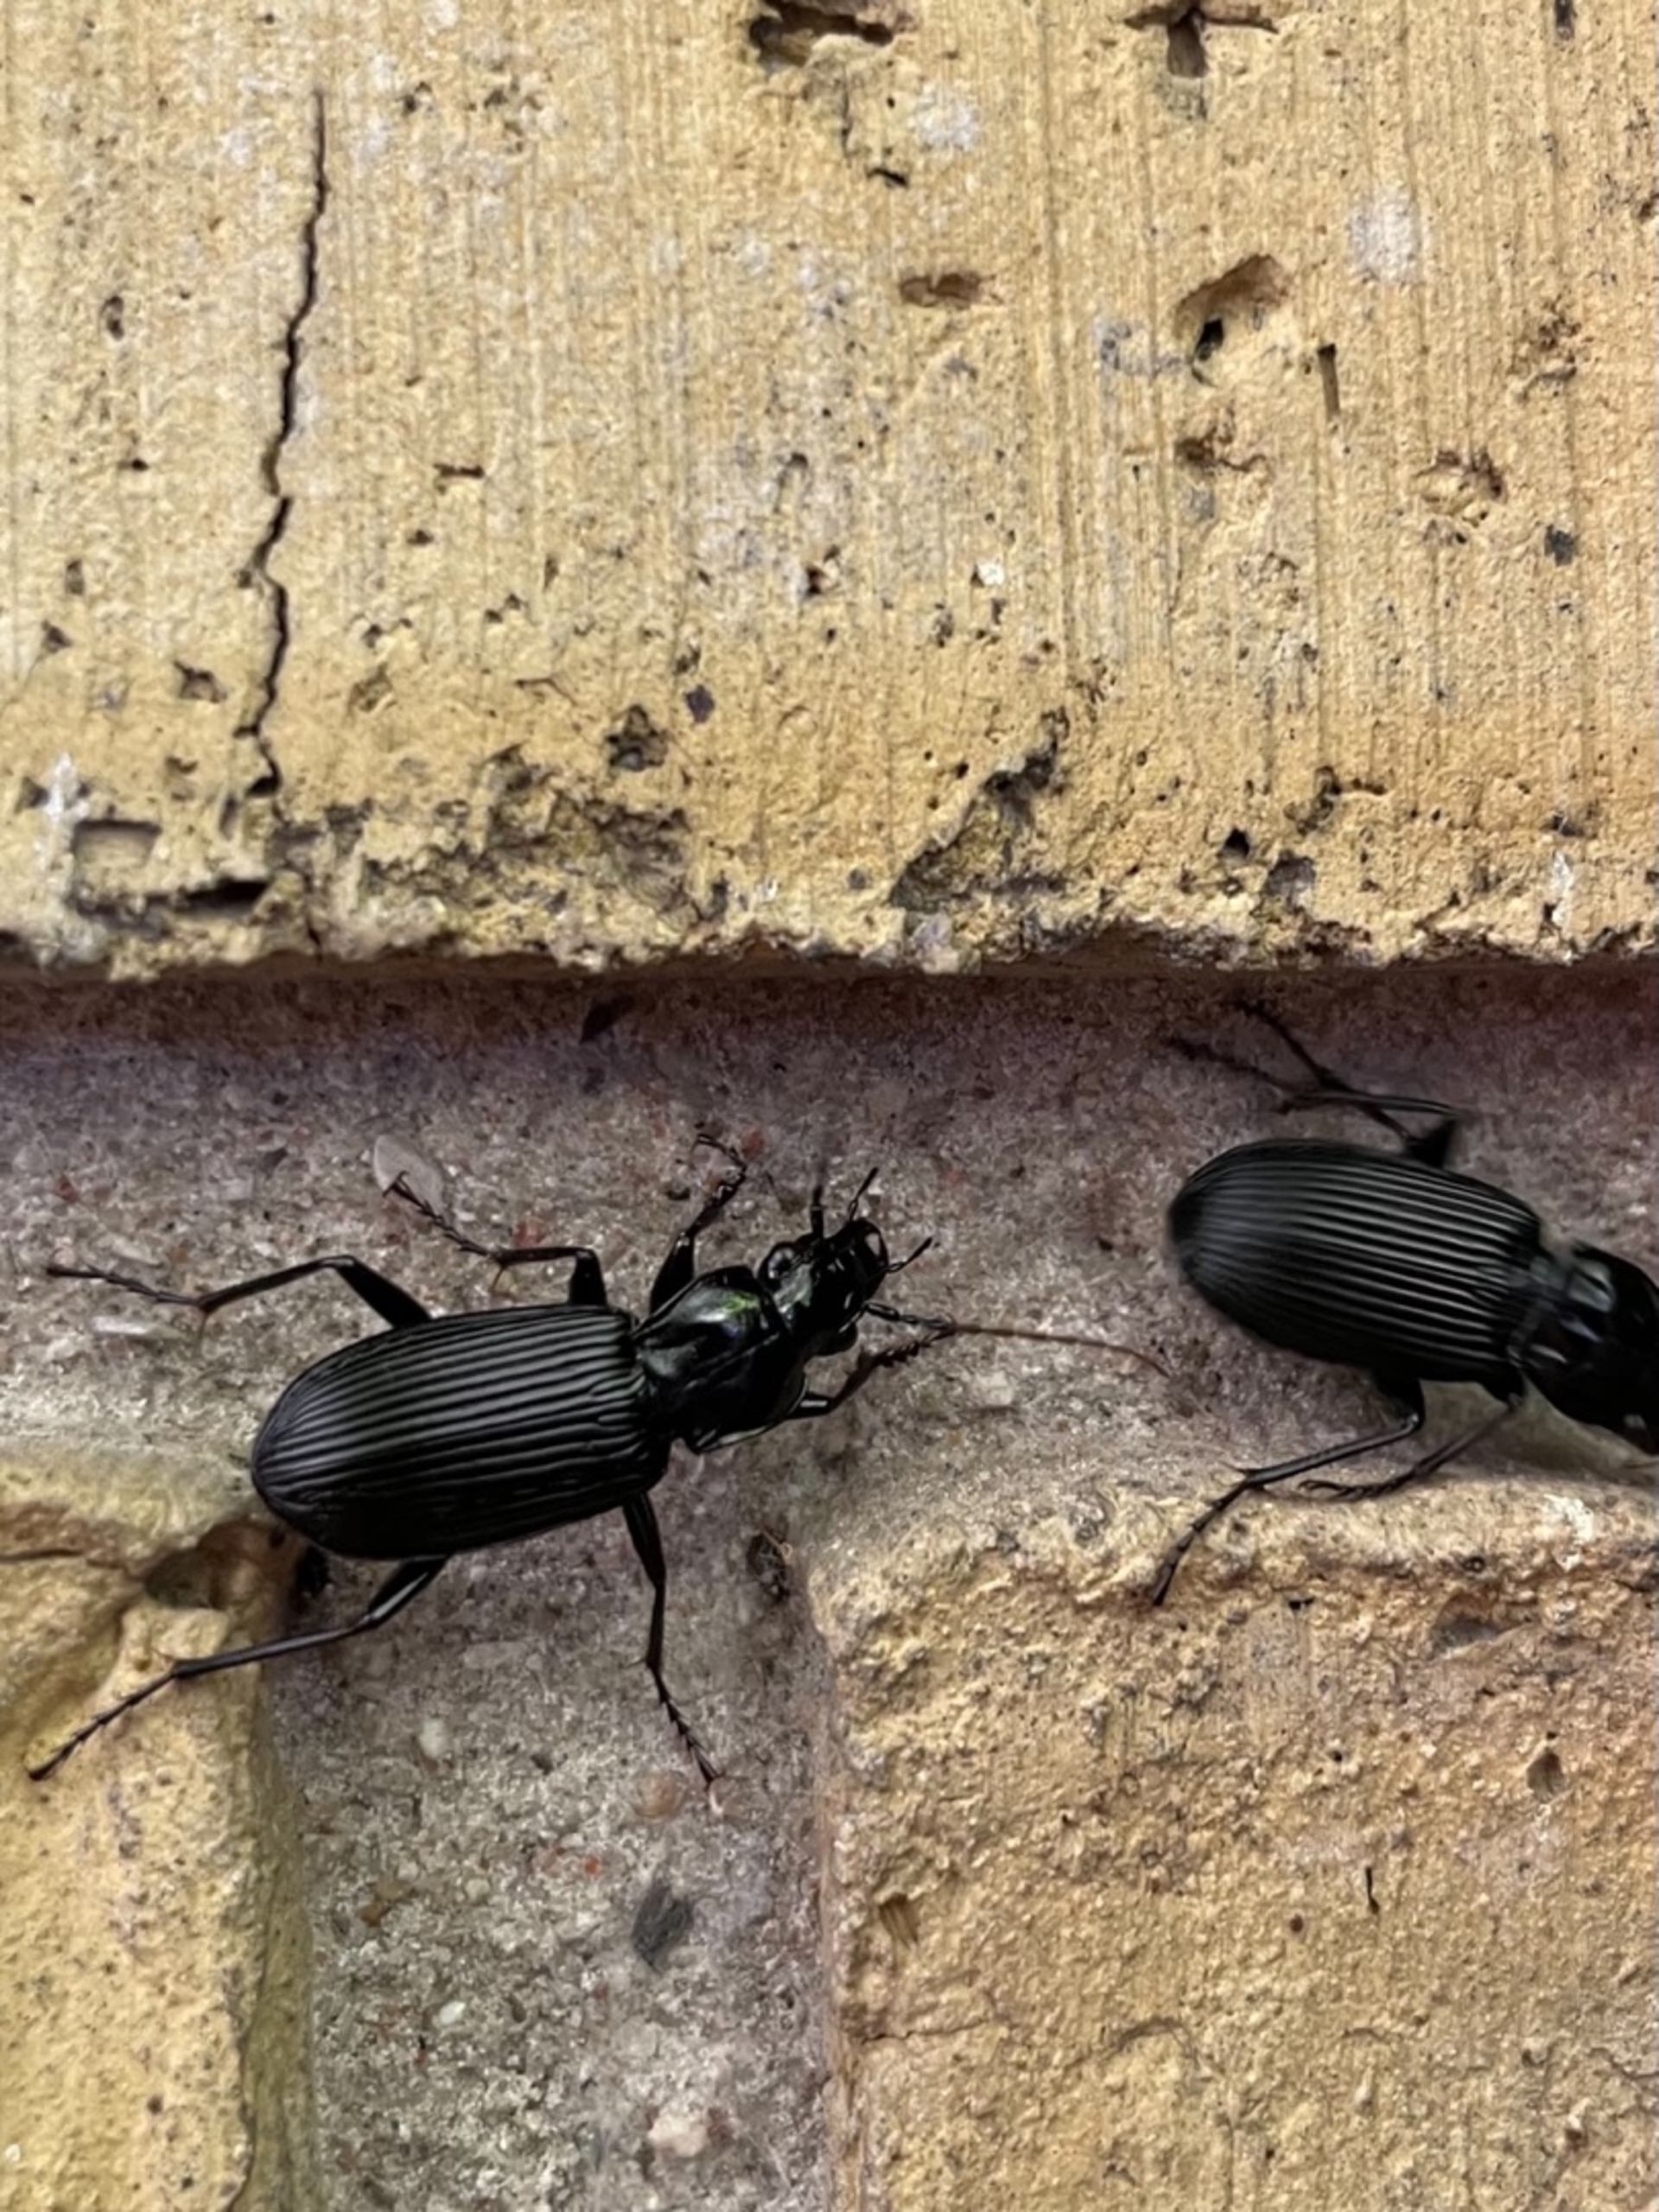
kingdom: Animalia
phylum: Arthropoda
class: Insecta
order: Coleoptera
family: Carabidae
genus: Pterostichus
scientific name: Pterostichus niger
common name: Skovjordløber
